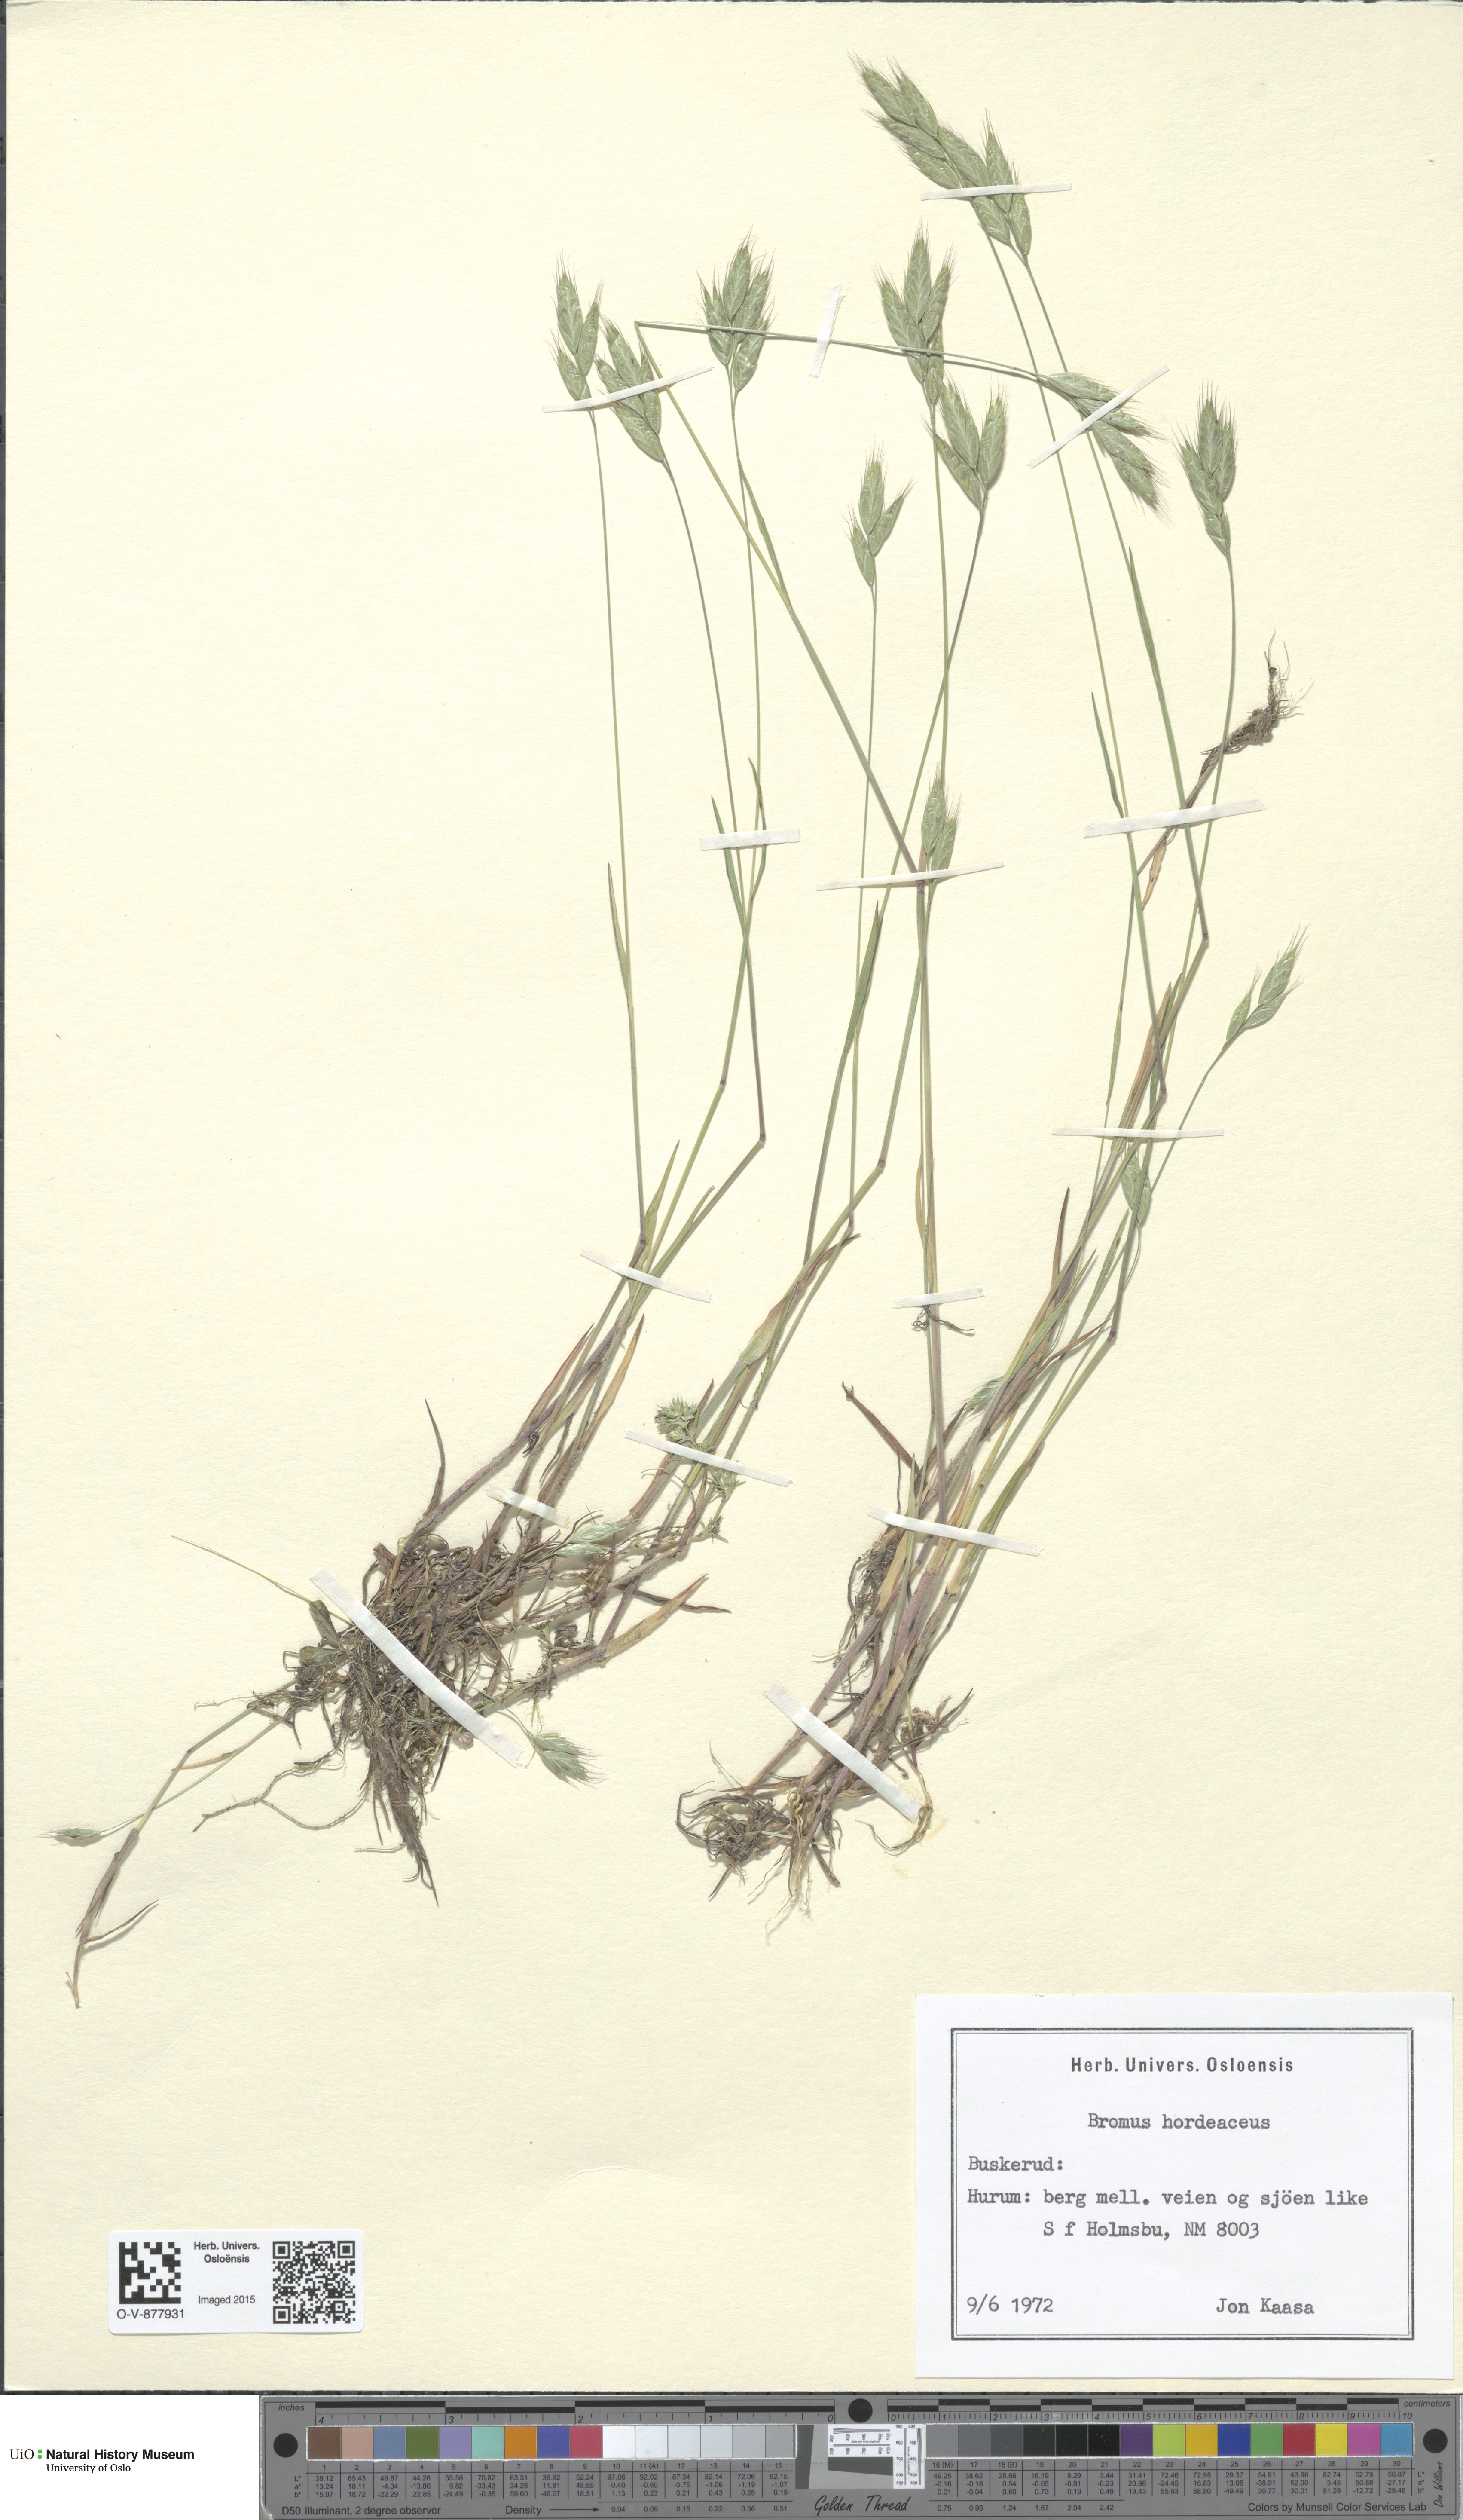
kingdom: Plantae
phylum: Tracheophyta
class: Liliopsida
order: Poales
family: Poaceae
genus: Bromus
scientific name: Bromus hordeaceus
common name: Soft brome
